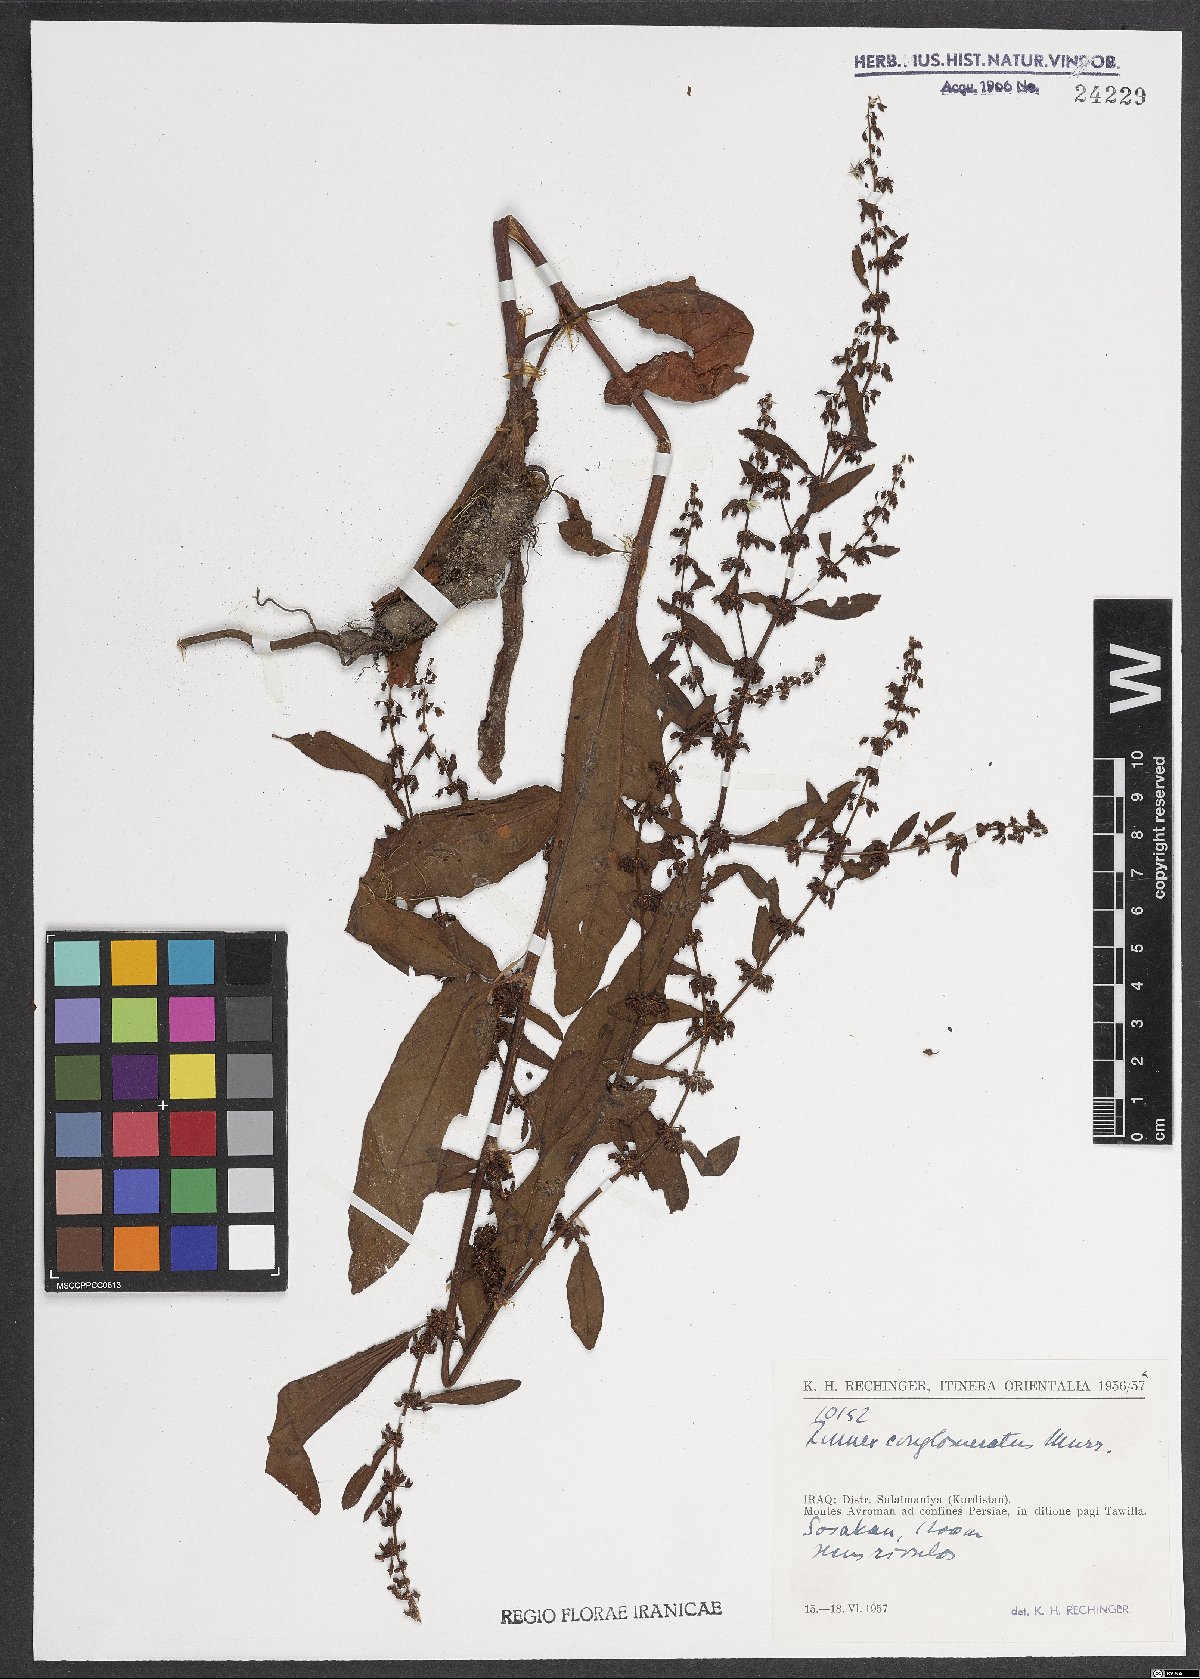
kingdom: Plantae
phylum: Tracheophyta
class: Magnoliopsida
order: Caryophyllales
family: Polygonaceae
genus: Rumex
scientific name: Rumex conglomeratus
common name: Clustered dock
